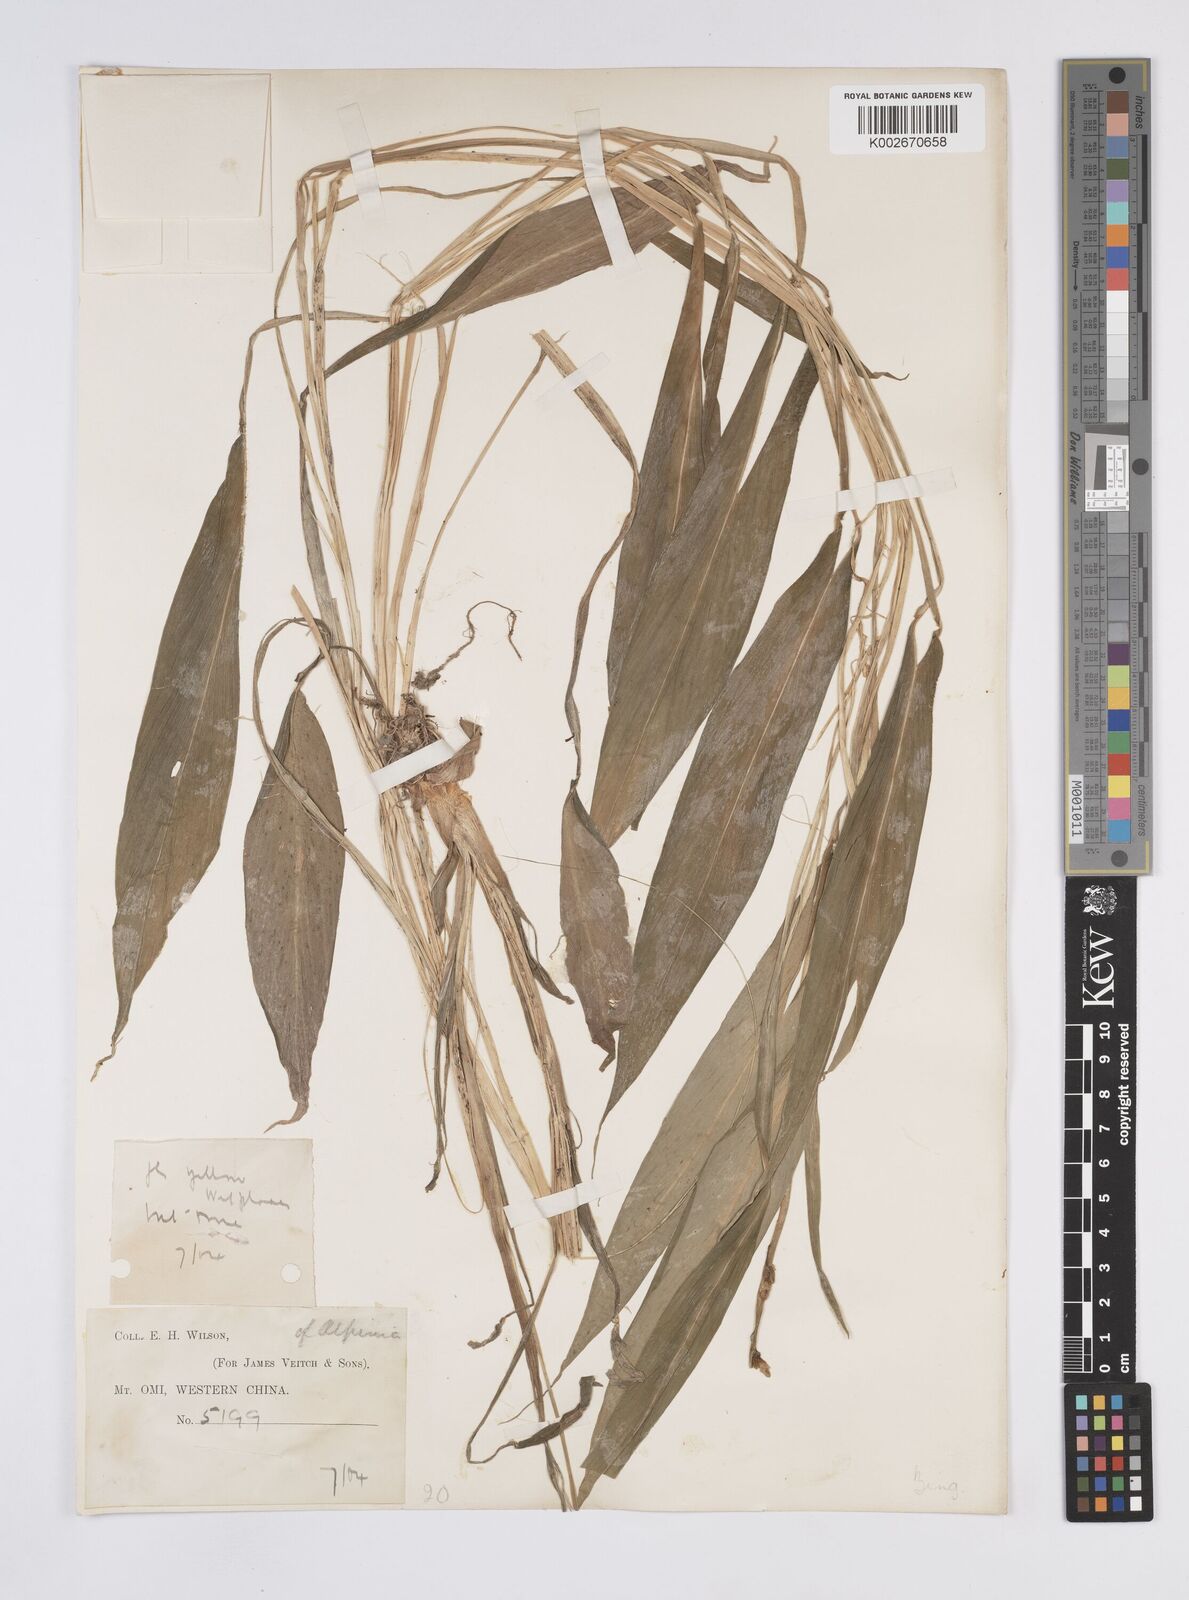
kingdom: Plantae
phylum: Tracheophyta
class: Liliopsida
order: Zingiberales
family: Zingiberaceae
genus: Alpinia
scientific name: Alpinia
